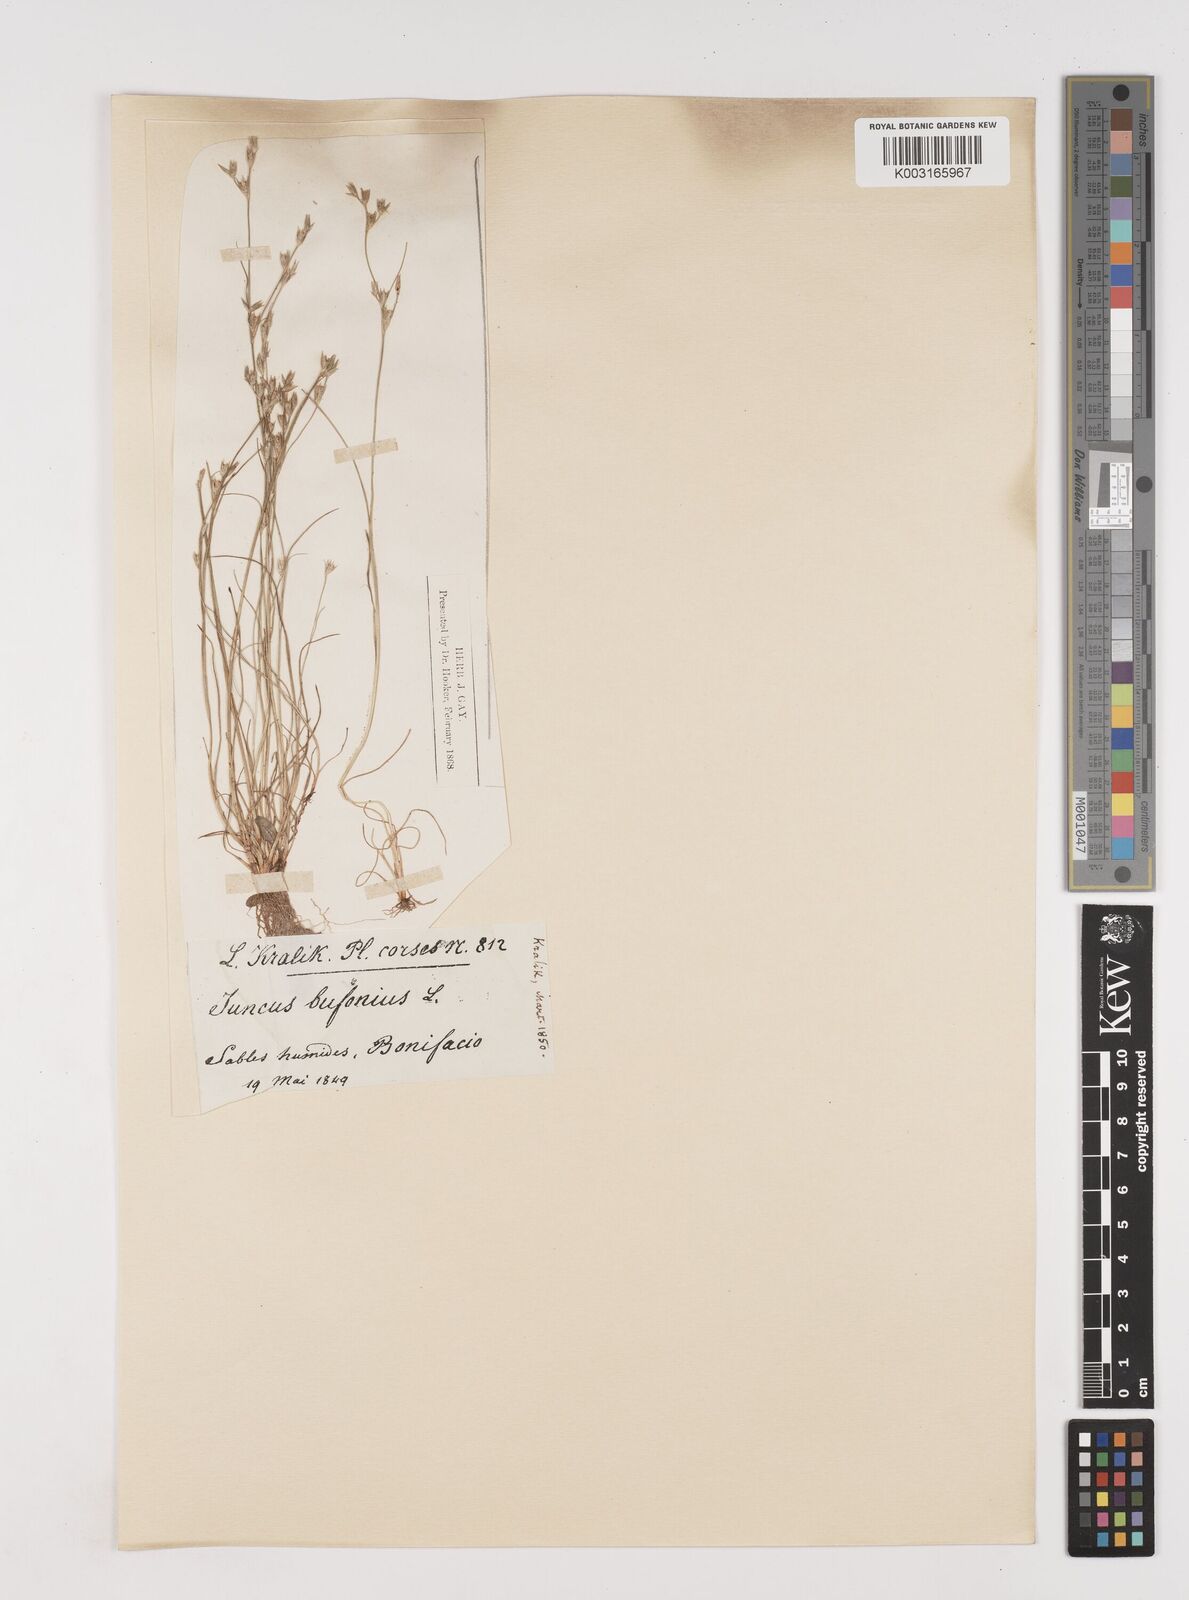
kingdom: Plantae
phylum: Tracheophyta
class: Liliopsida
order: Poales
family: Juncaceae
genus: Juncus
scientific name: Juncus bufonius
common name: Toad rush
